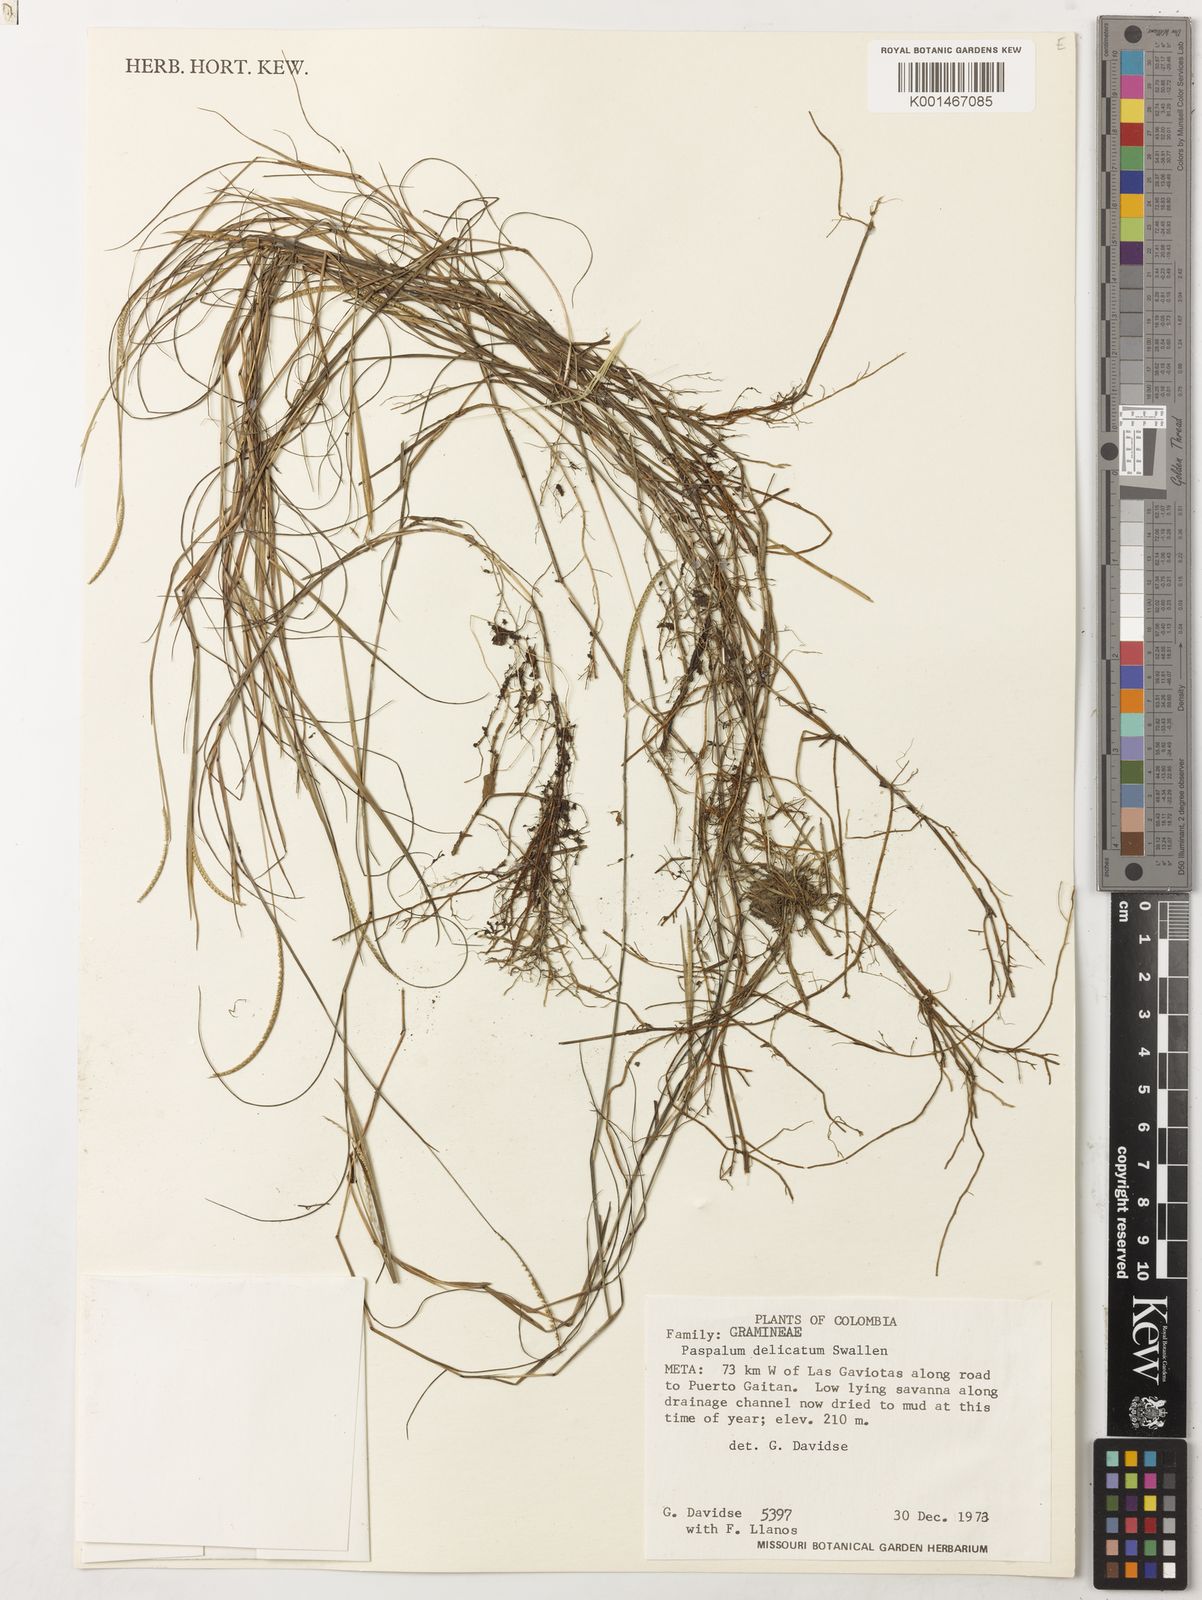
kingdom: Plantae
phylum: Tracheophyta
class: Liliopsida
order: Poales
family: Poaceae
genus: Paspalum
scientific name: Paspalum delicatum
